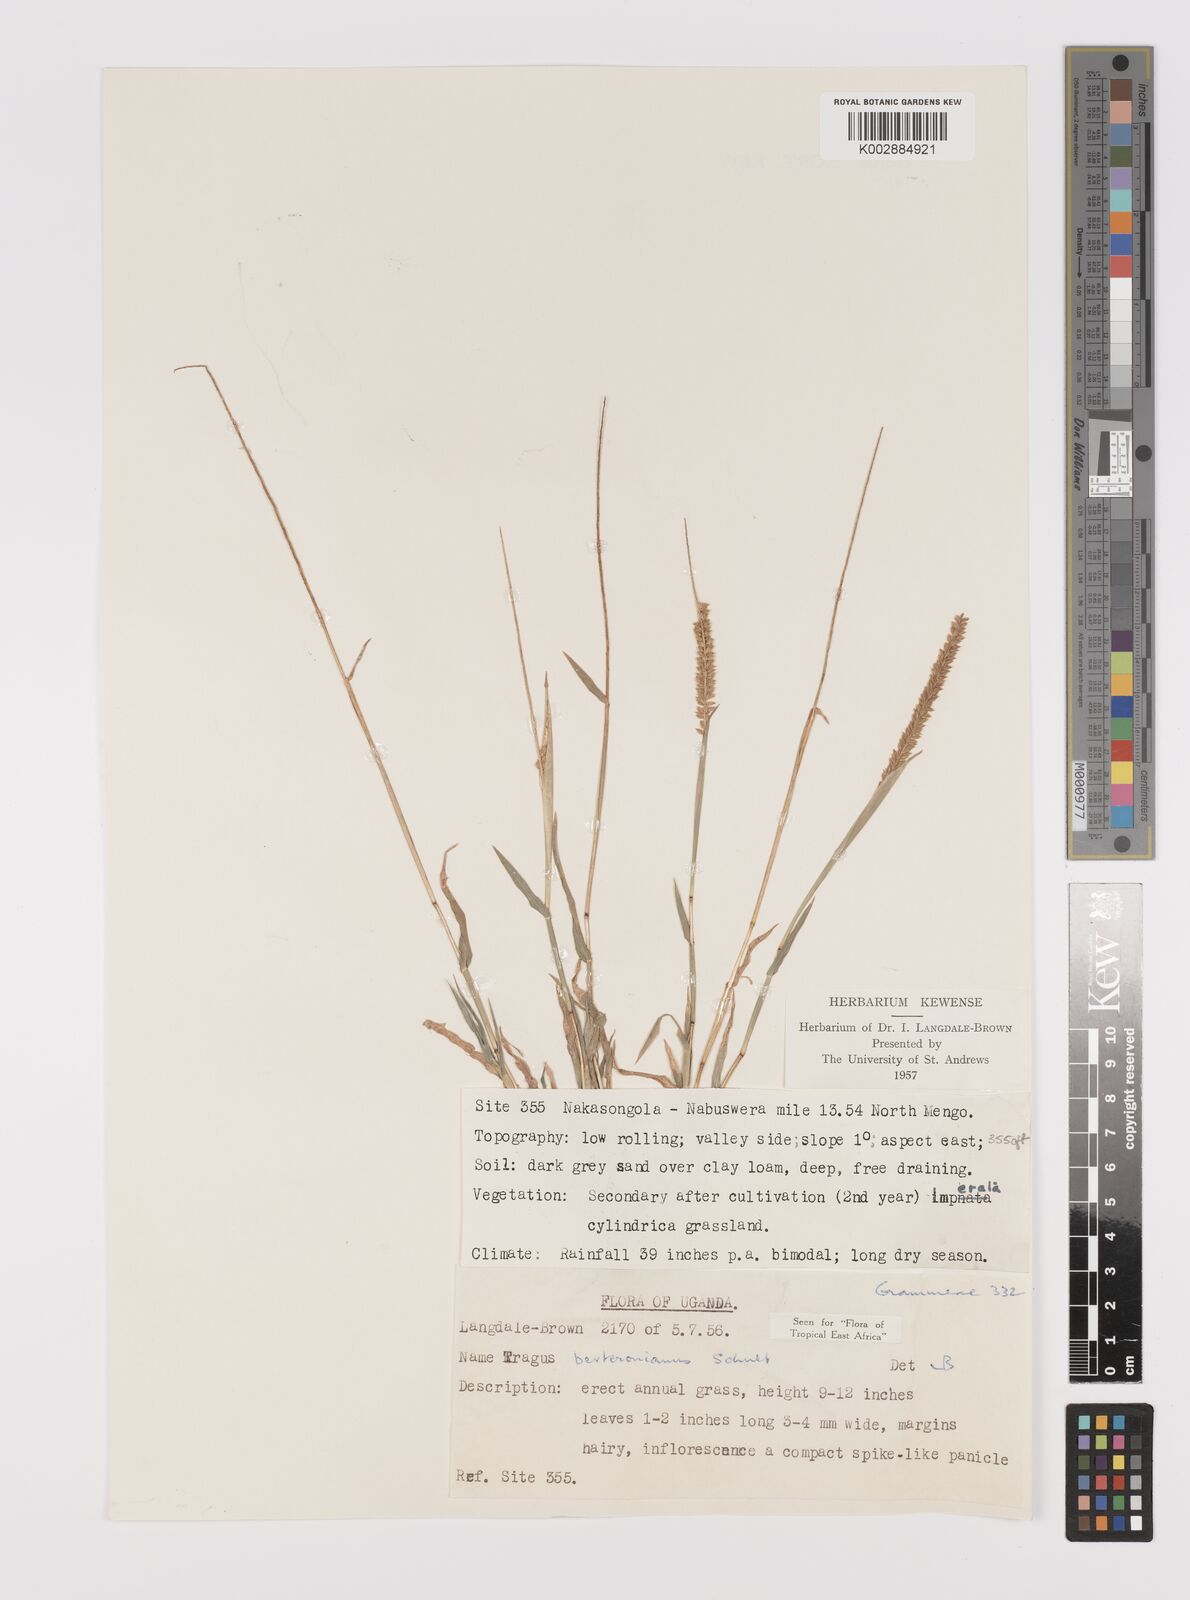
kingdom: Plantae
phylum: Tracheophyta
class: Liliopsida
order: Poales
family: Poaceae
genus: Tragus
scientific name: Tragus berteronianus
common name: African bur-grass
